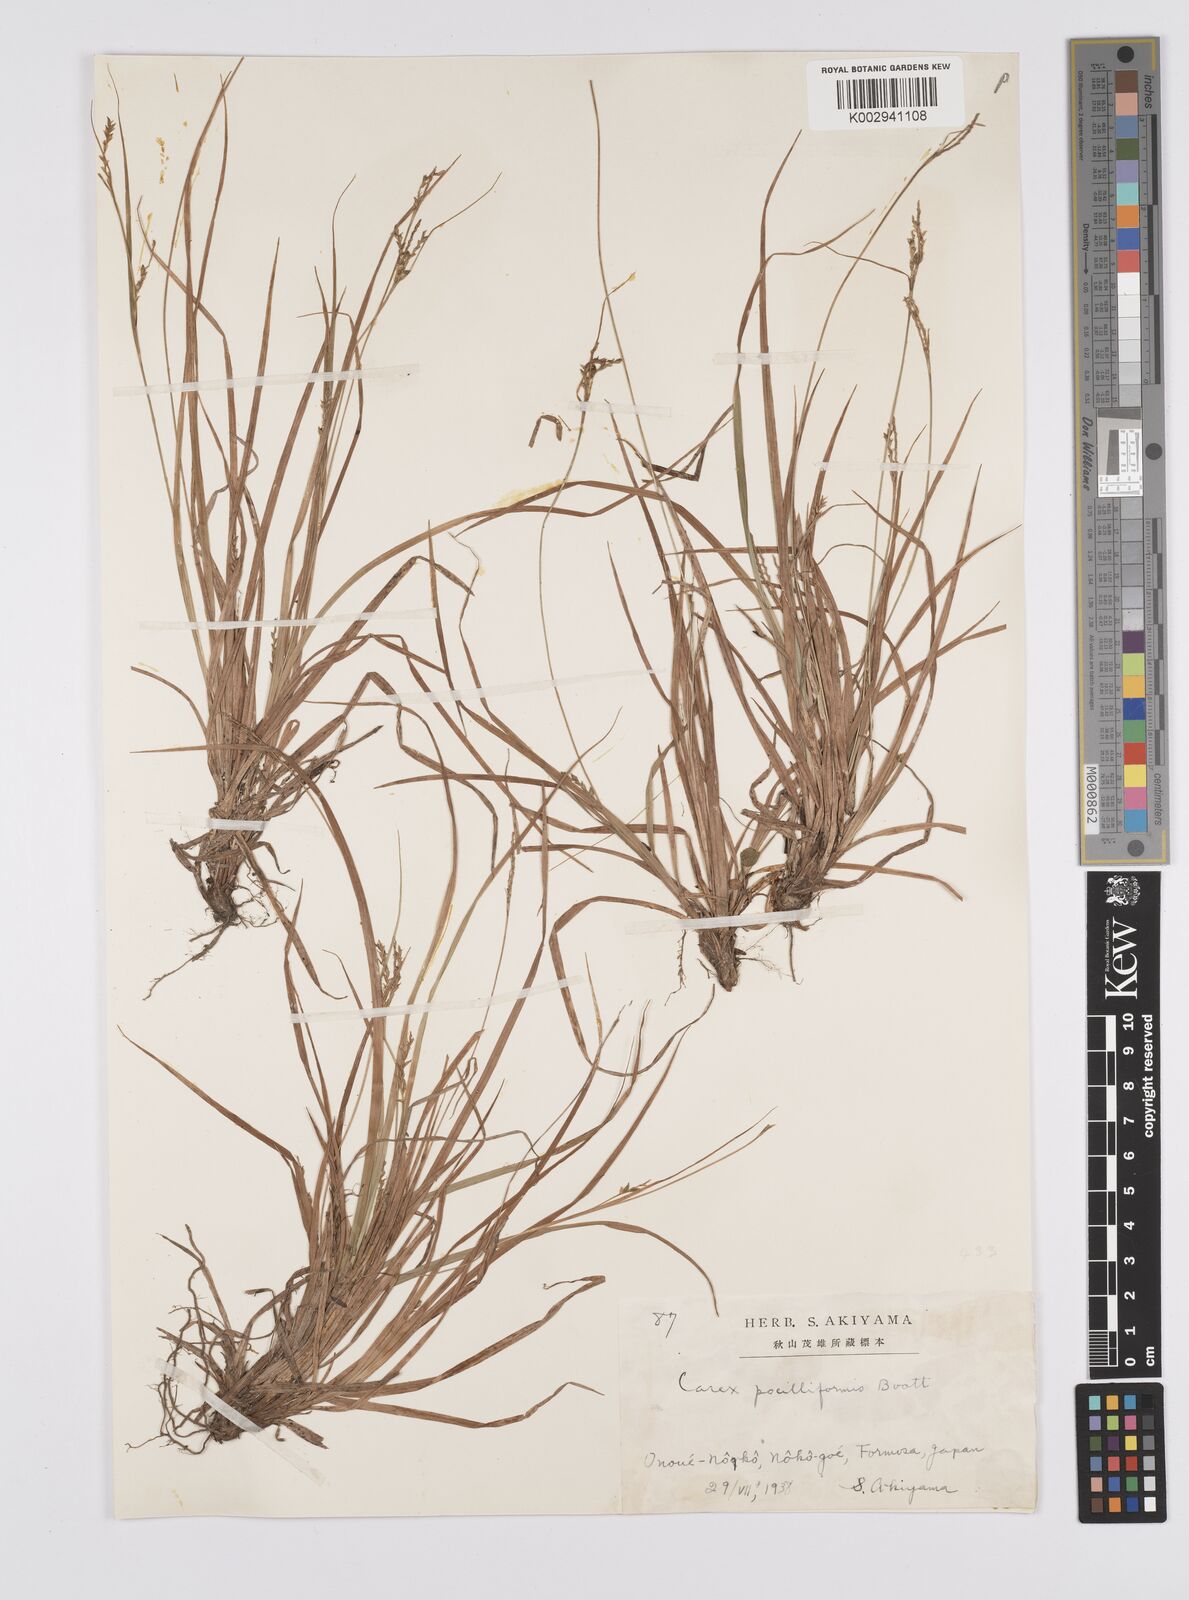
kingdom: Plantae
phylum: Tracheophyta
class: Liliopsida
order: Poales
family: Cyperaceae
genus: Carex
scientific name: Carex tristachya
